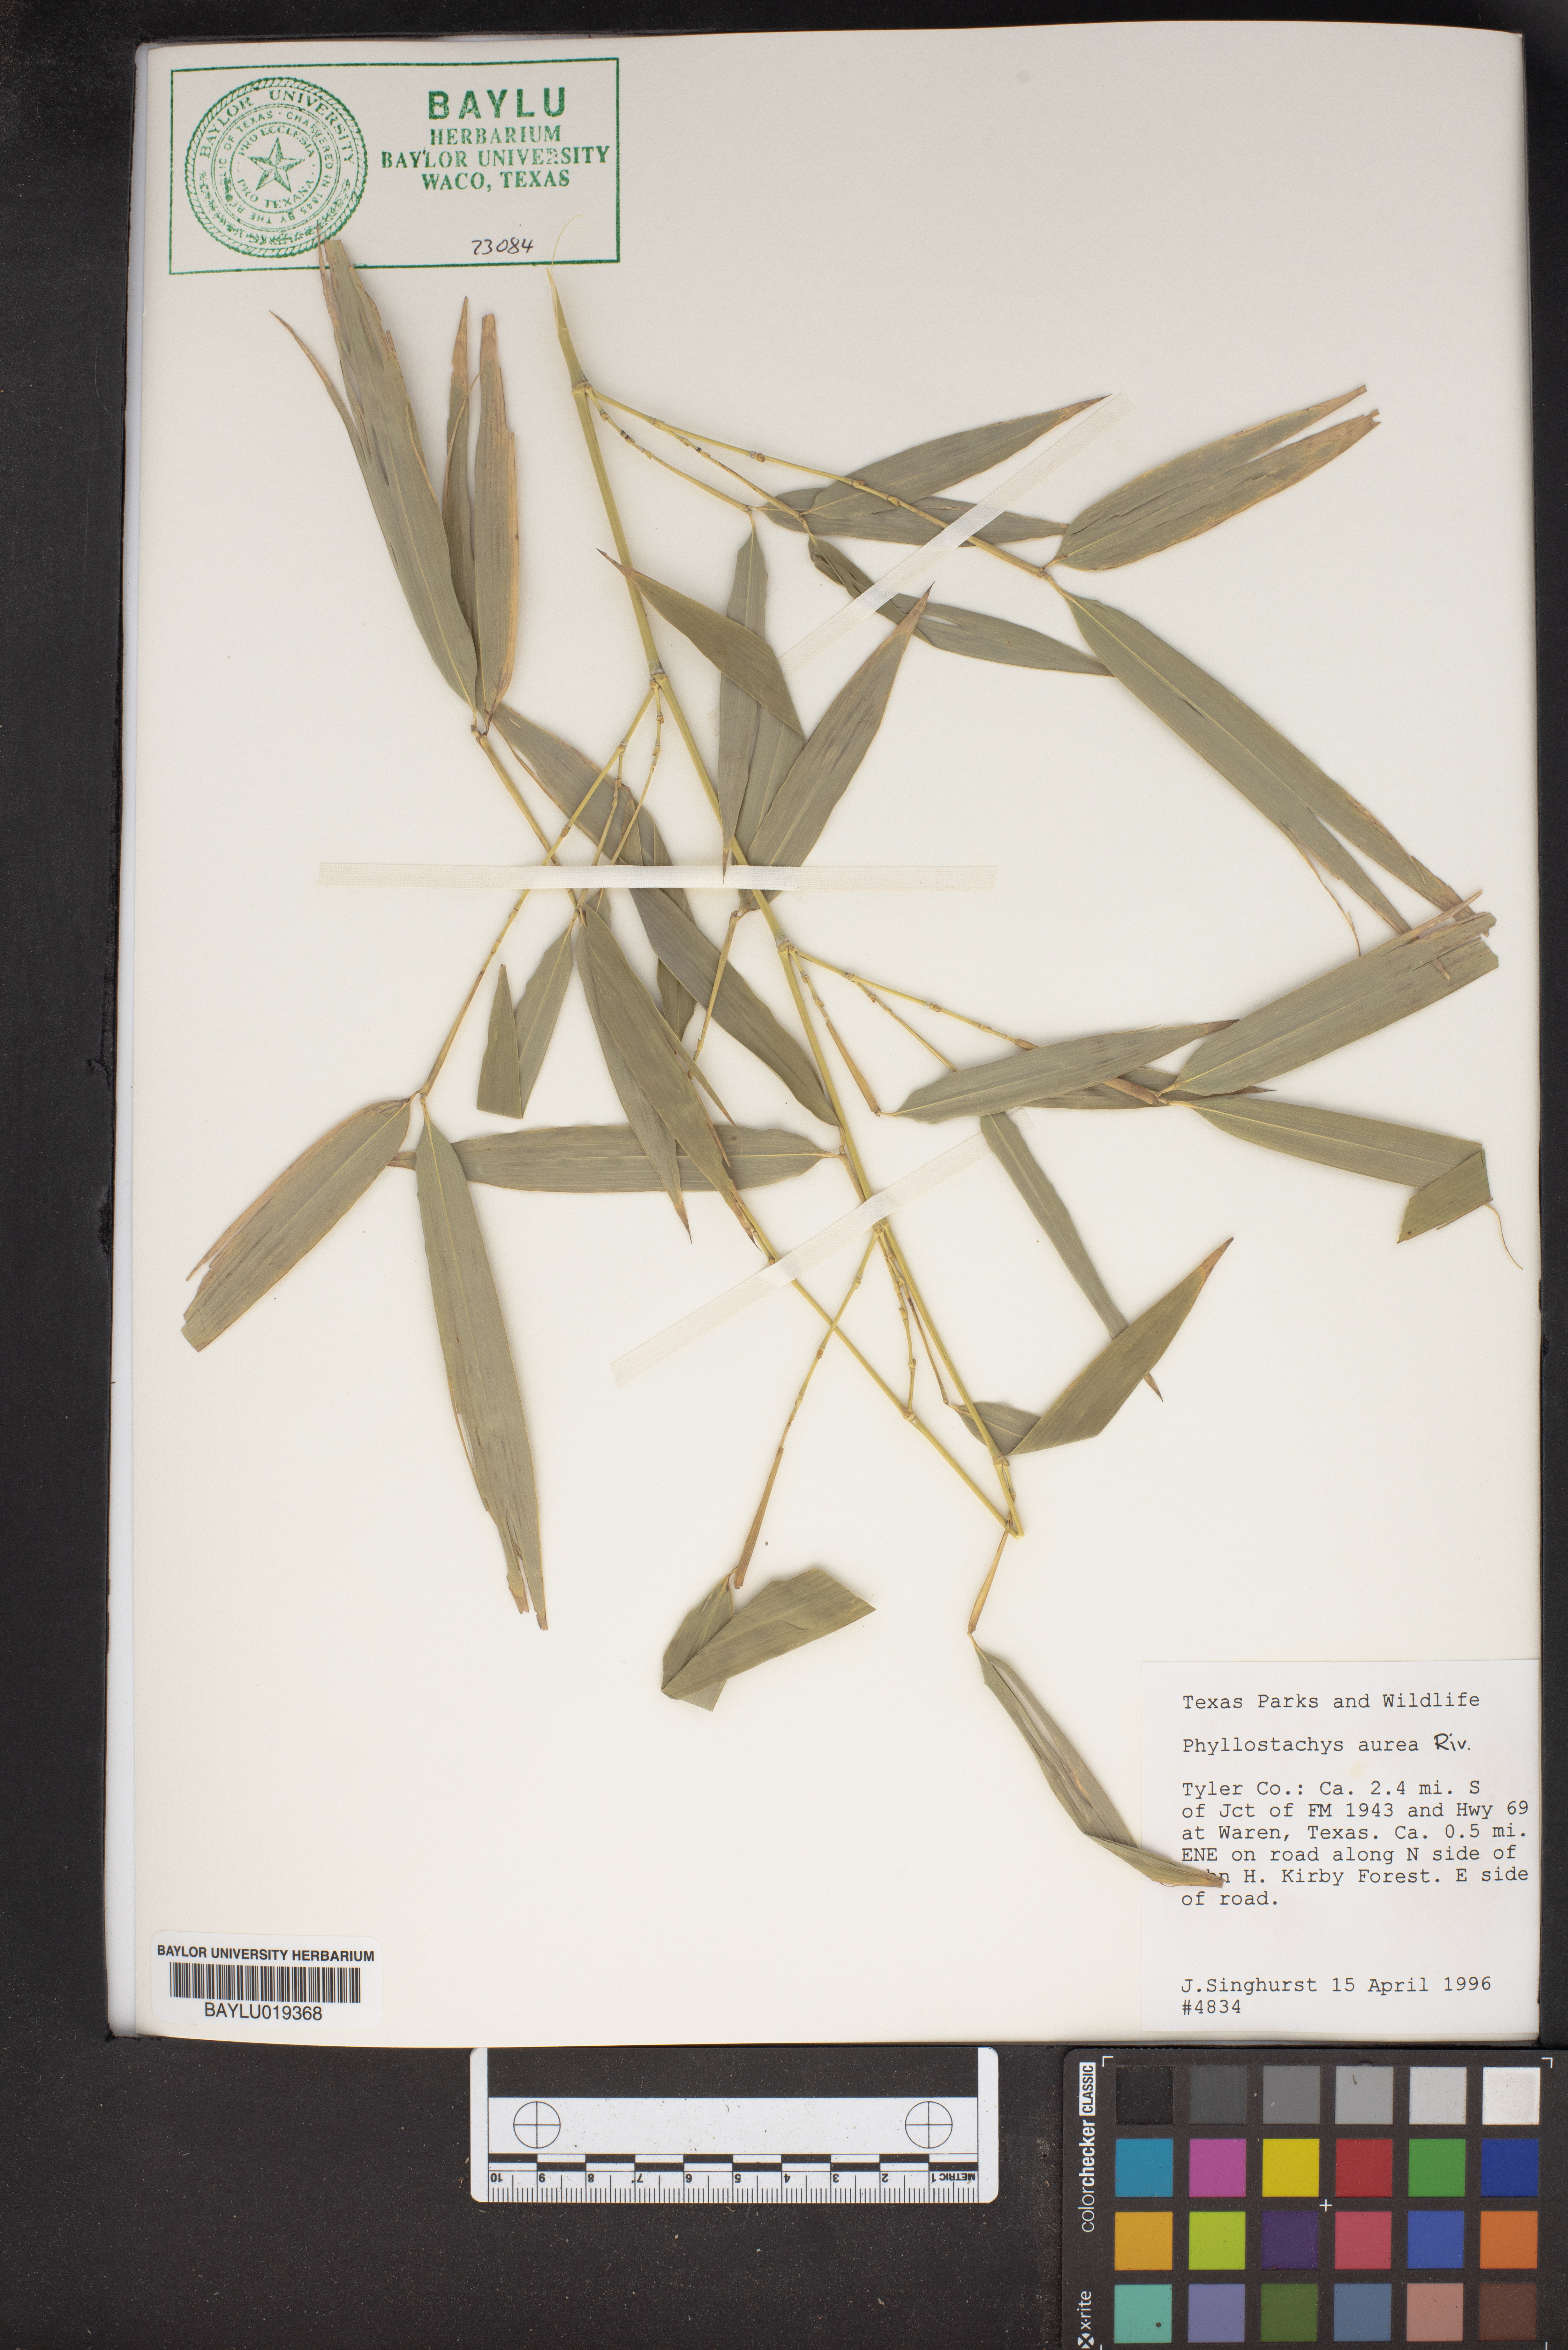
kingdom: Plantae
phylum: Tracheophyta
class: Liliopsida
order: Poales
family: Poaceae
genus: Phyllostachys
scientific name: Phyllostachys aurea
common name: Golden bamboo
